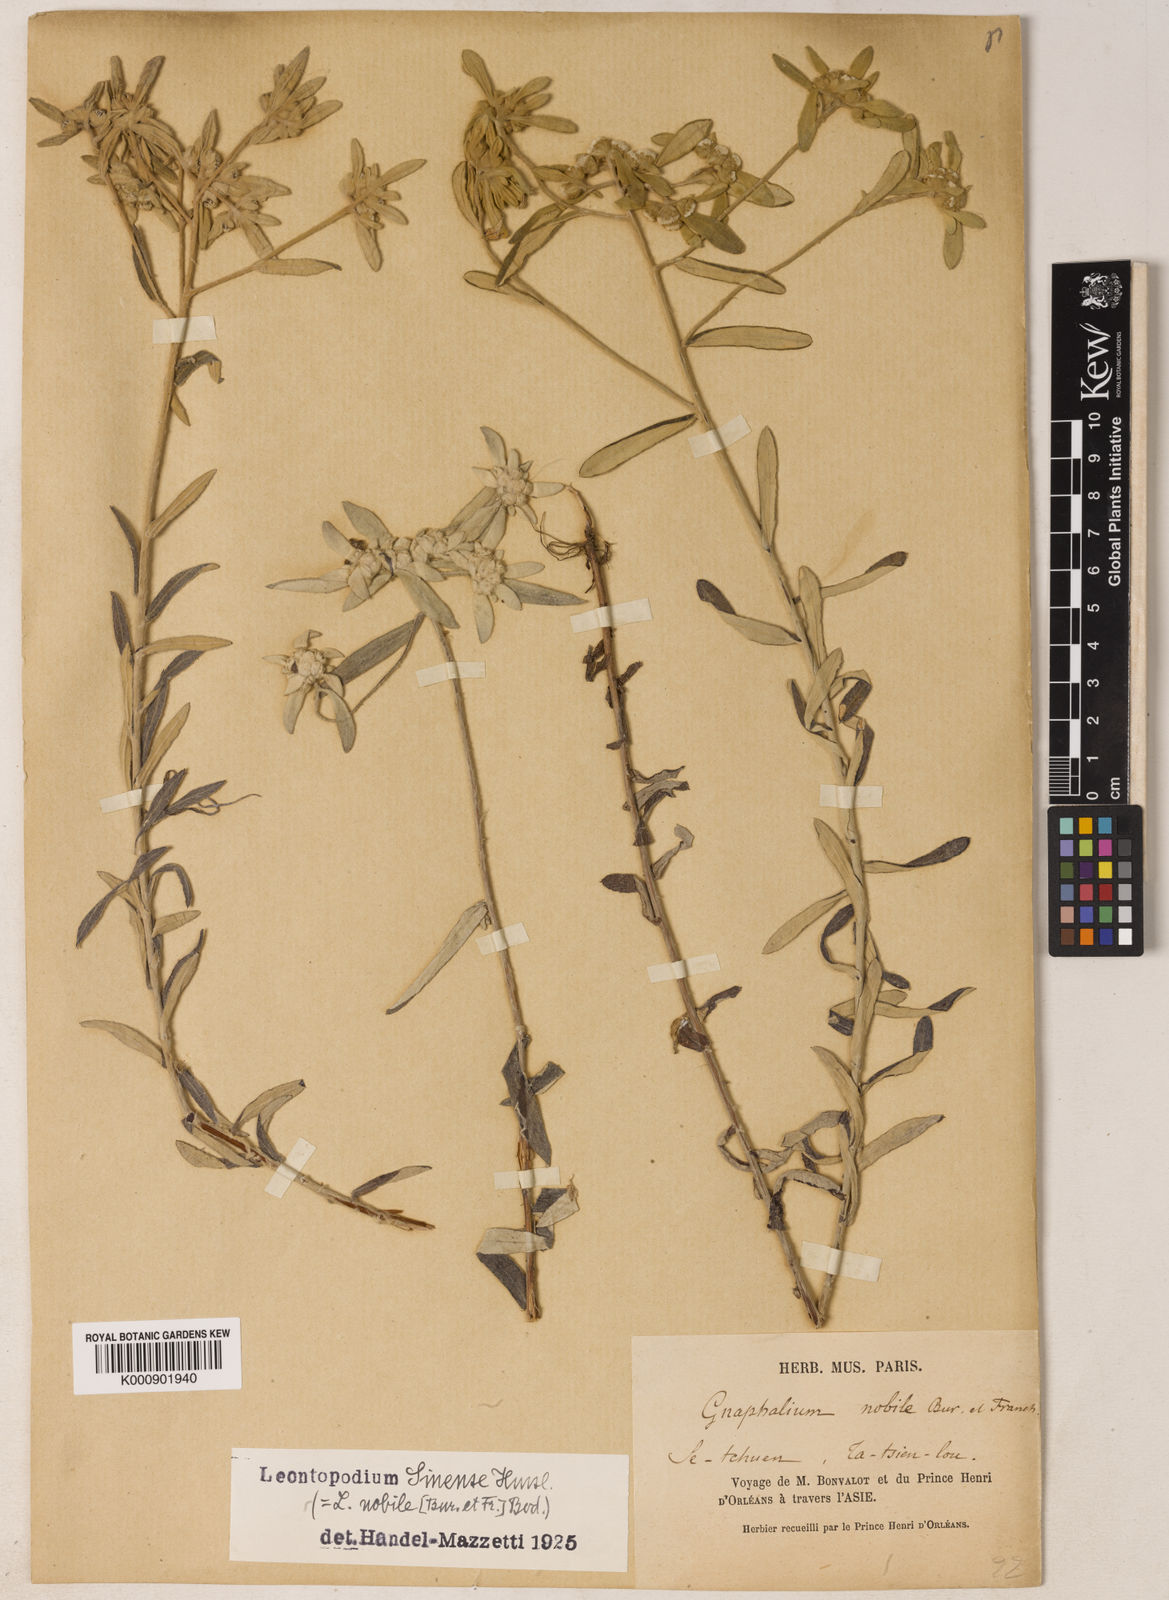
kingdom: Plantae
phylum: Tracheophyta
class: Magnoliopsida
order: Asterales
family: Asteraceae
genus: Leontopodium
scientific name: Leontopodium sinense
